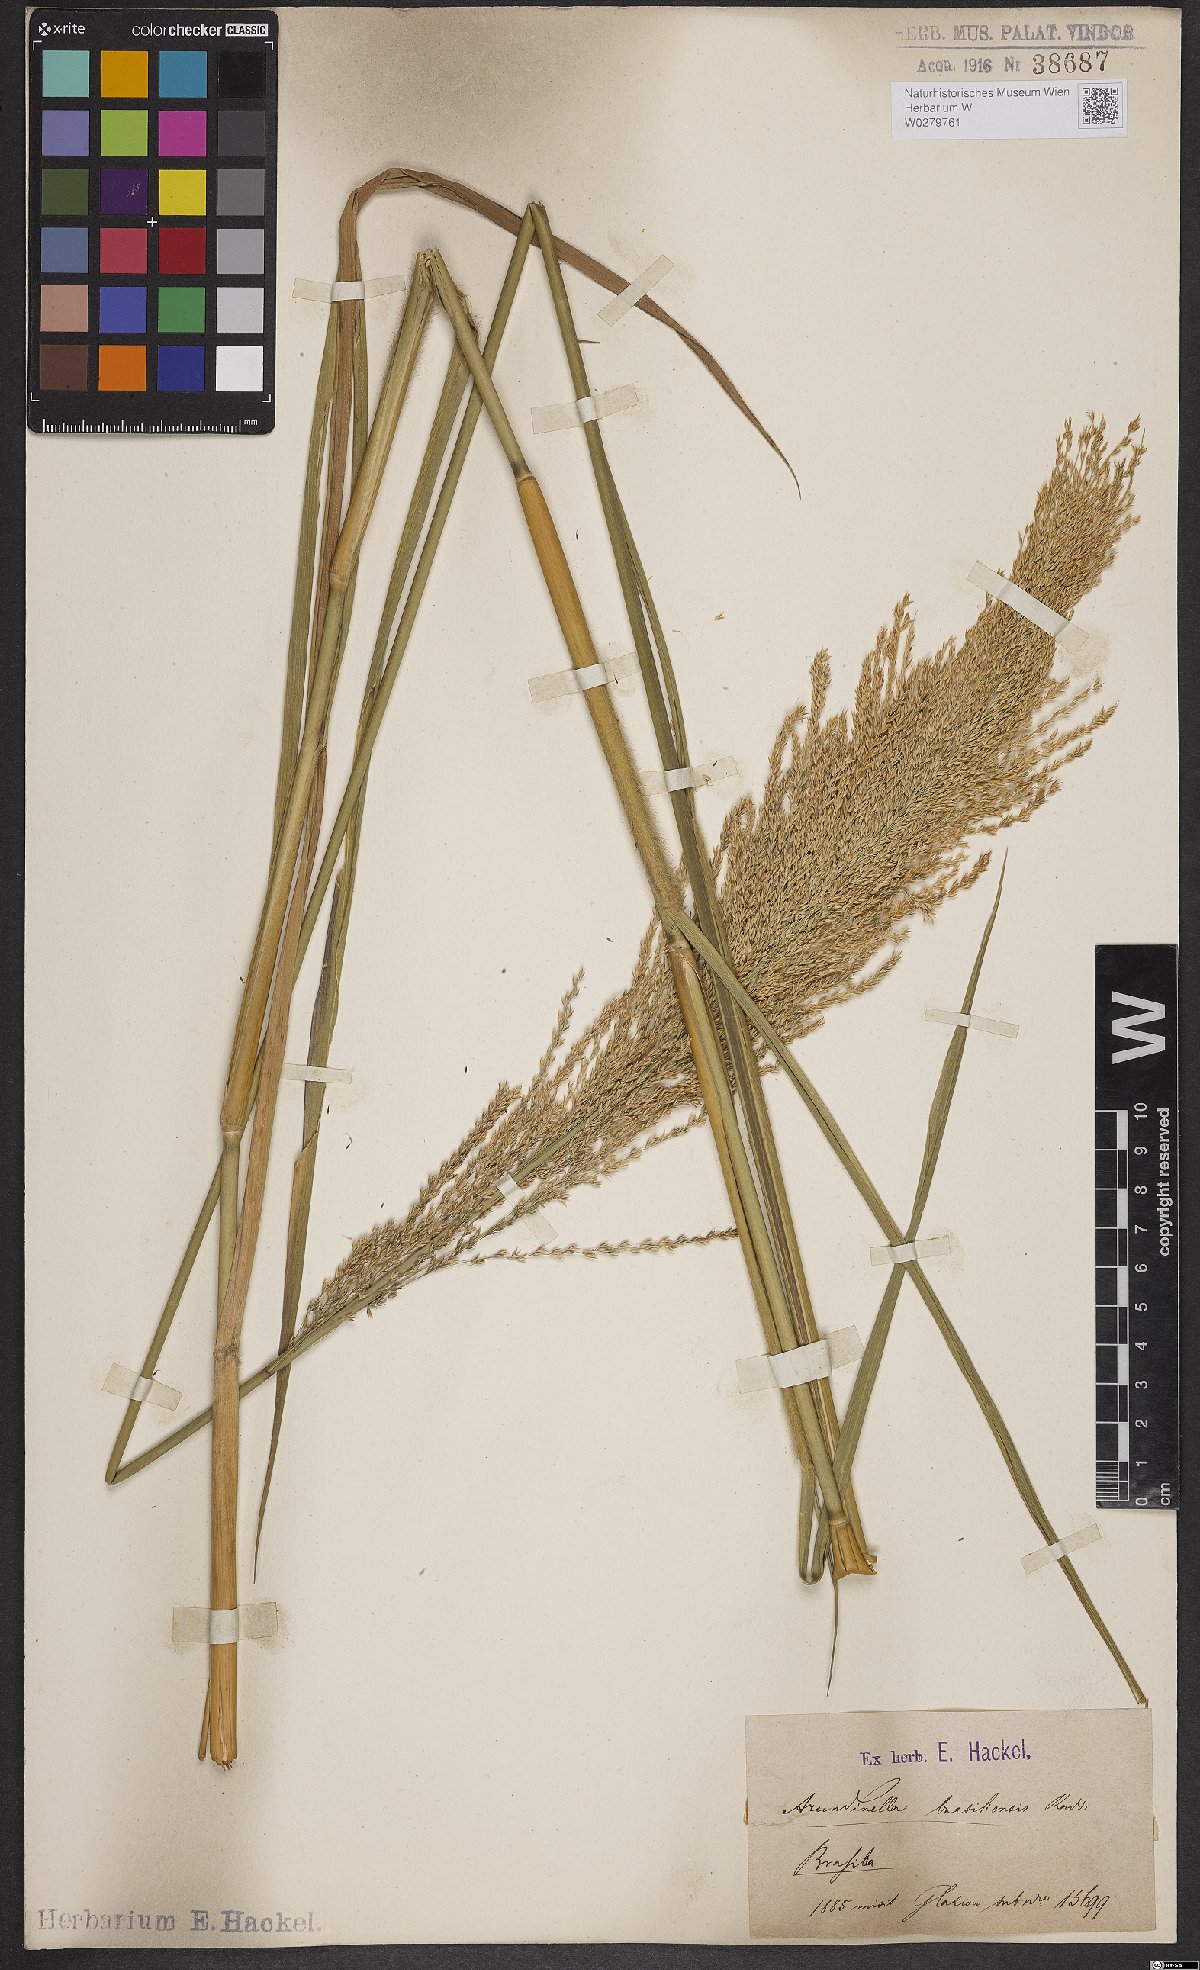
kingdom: Plantae
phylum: Tracheophyta
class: Liliopsida
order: Poales
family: Poaceae
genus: Arundinella
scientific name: Arundinella hispida
